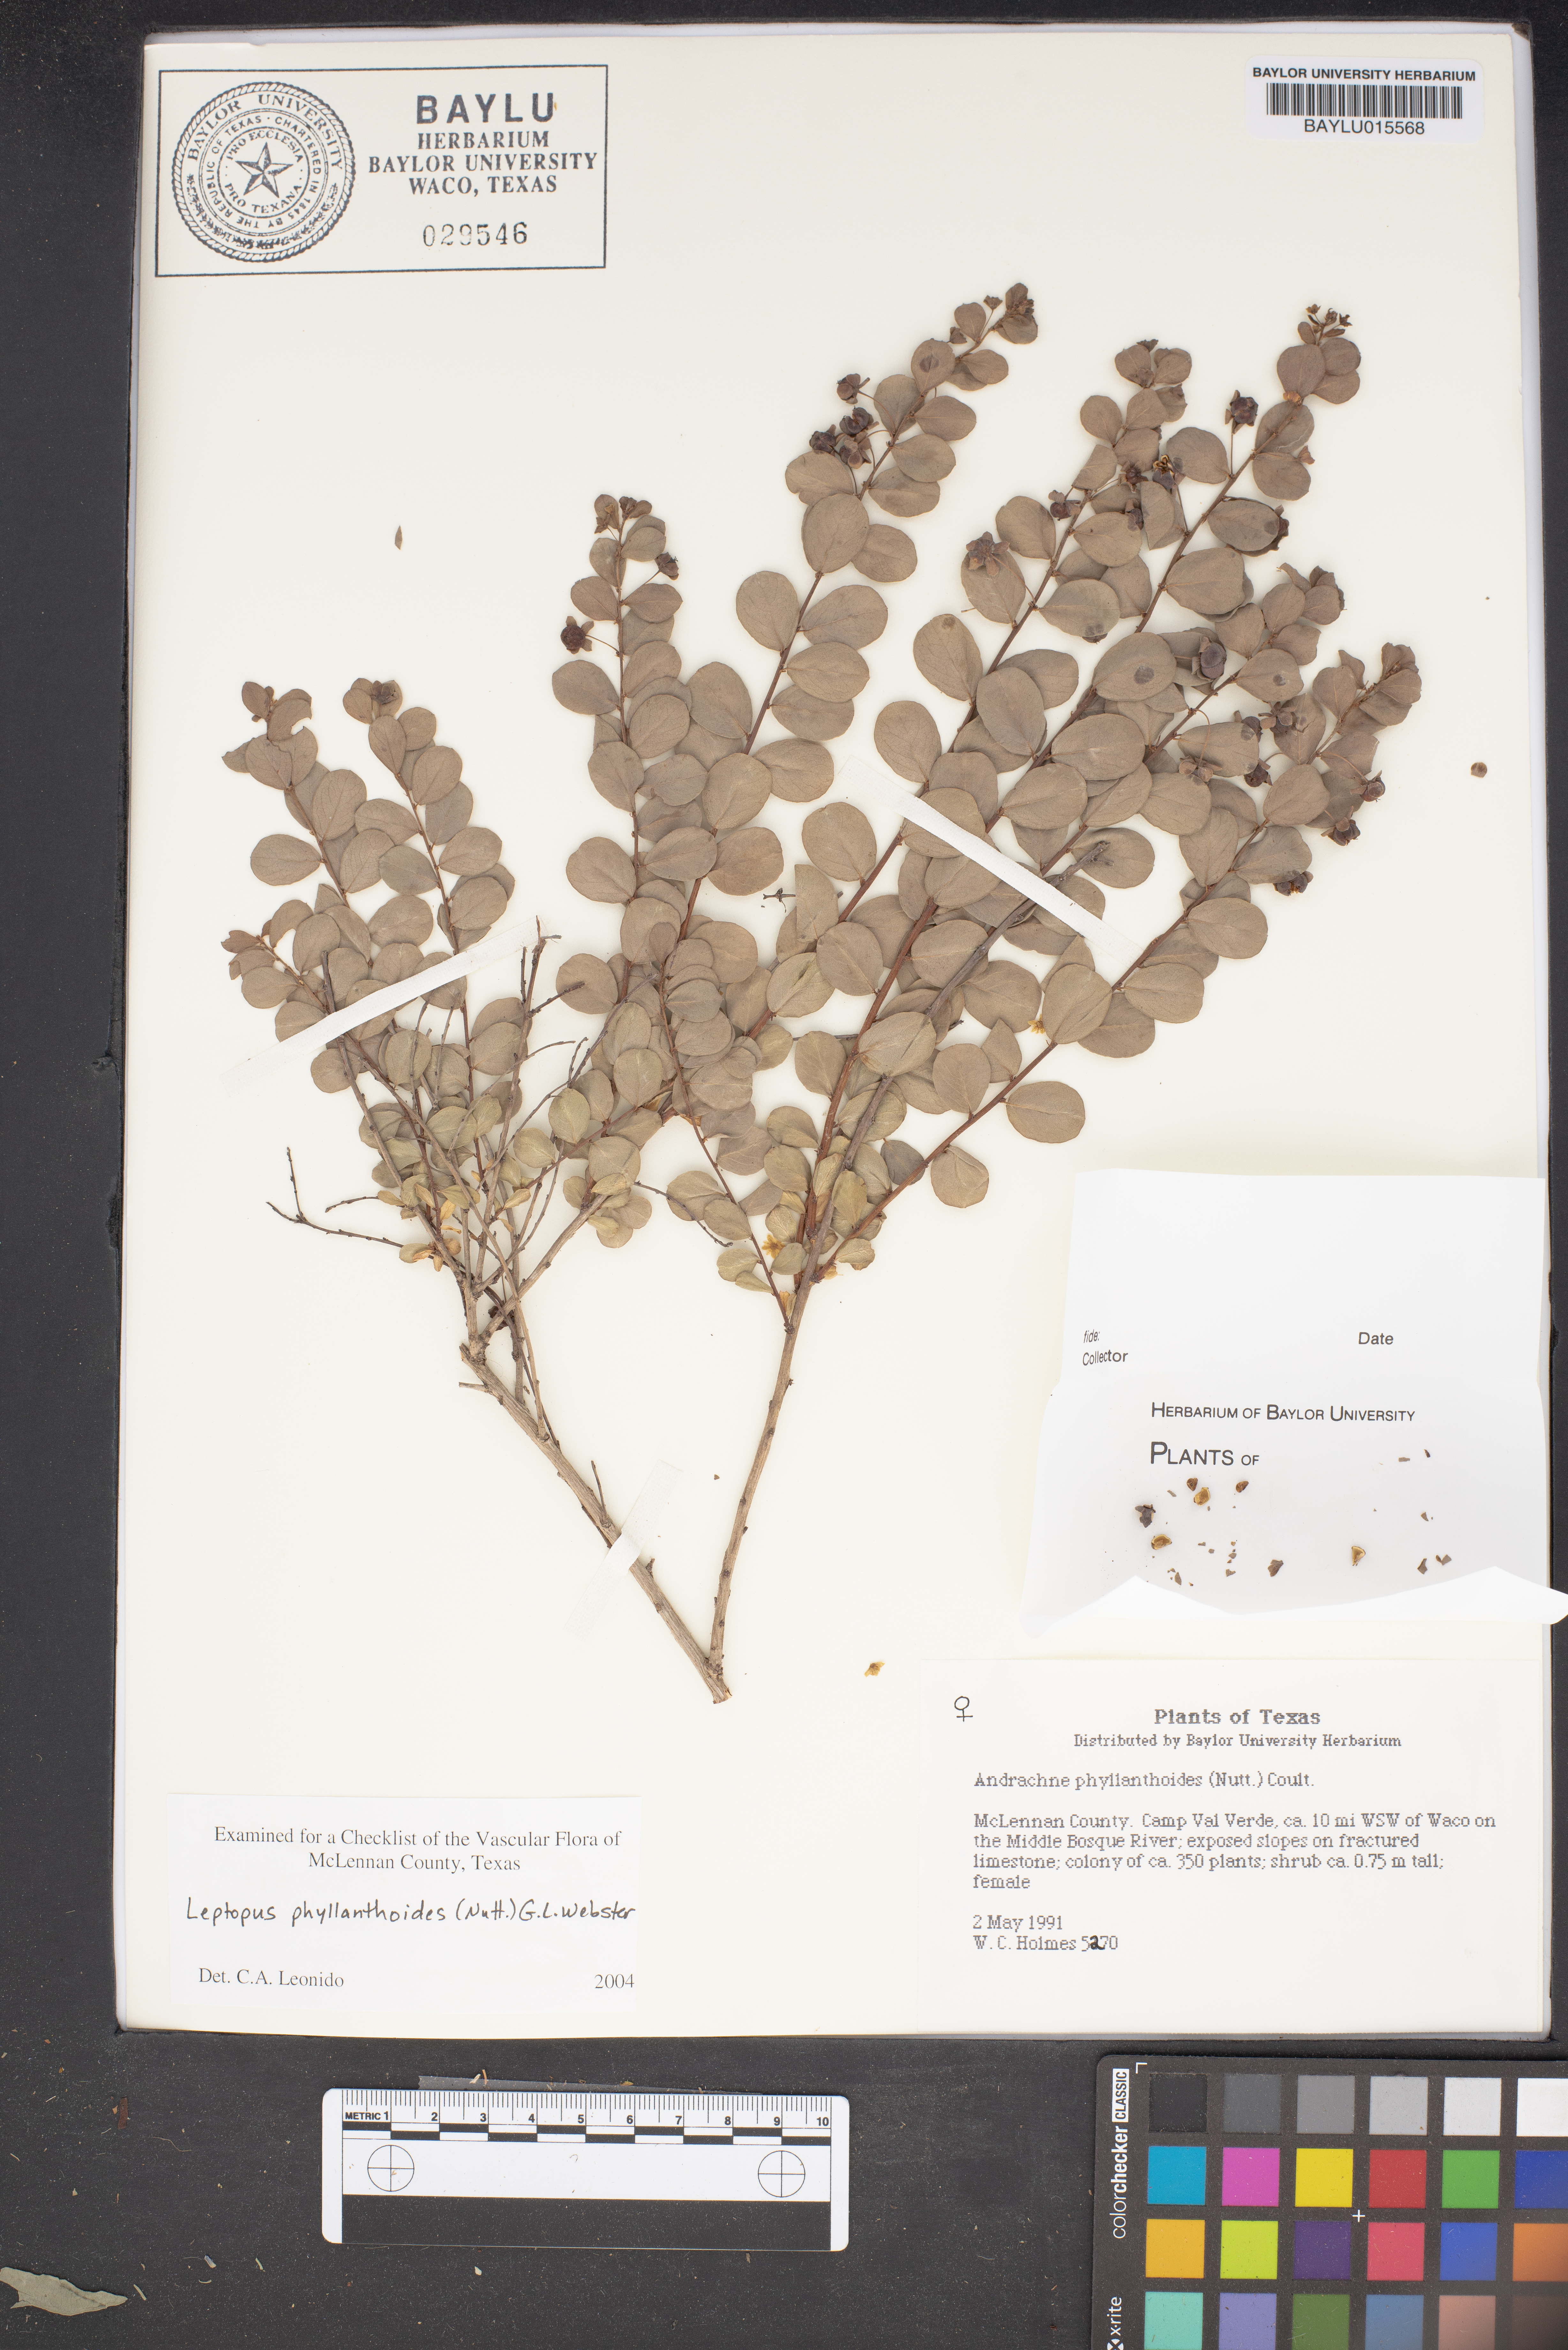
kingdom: Plantae
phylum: Tracheophyta
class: Magnoliopsida
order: Malpighiales
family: Phyllanthaceae
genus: Phyllanthopsis
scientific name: Phyllanthopsis phyllanthoides
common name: Missouri maidenbush
